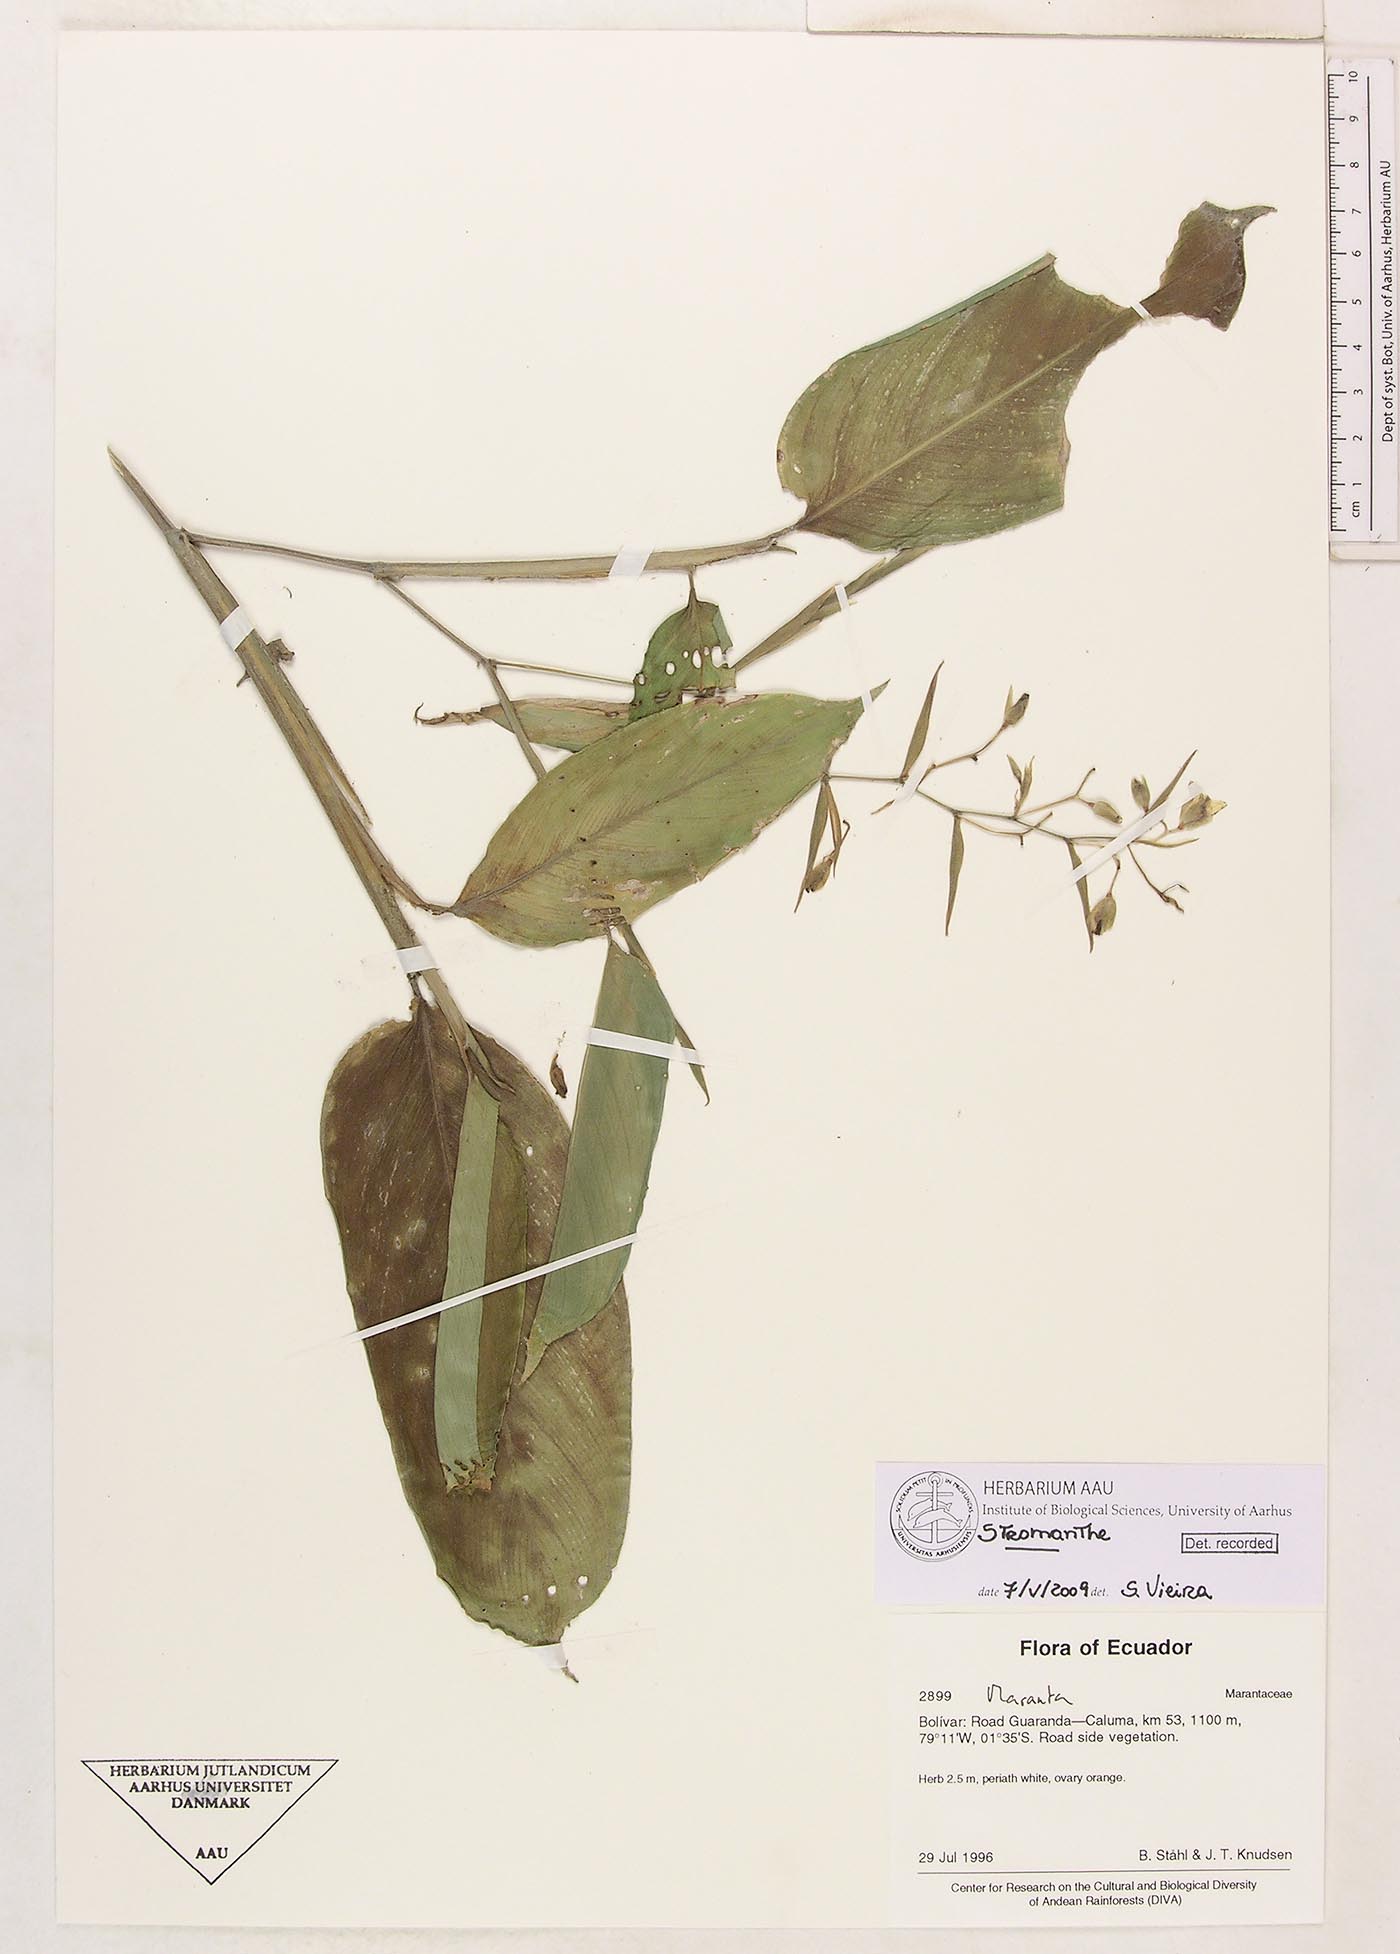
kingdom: Plantae
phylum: Tracheophyta
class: Liliopsida
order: Zingiberales
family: Marantaceae
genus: Stromanthe
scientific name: Stromanthe
